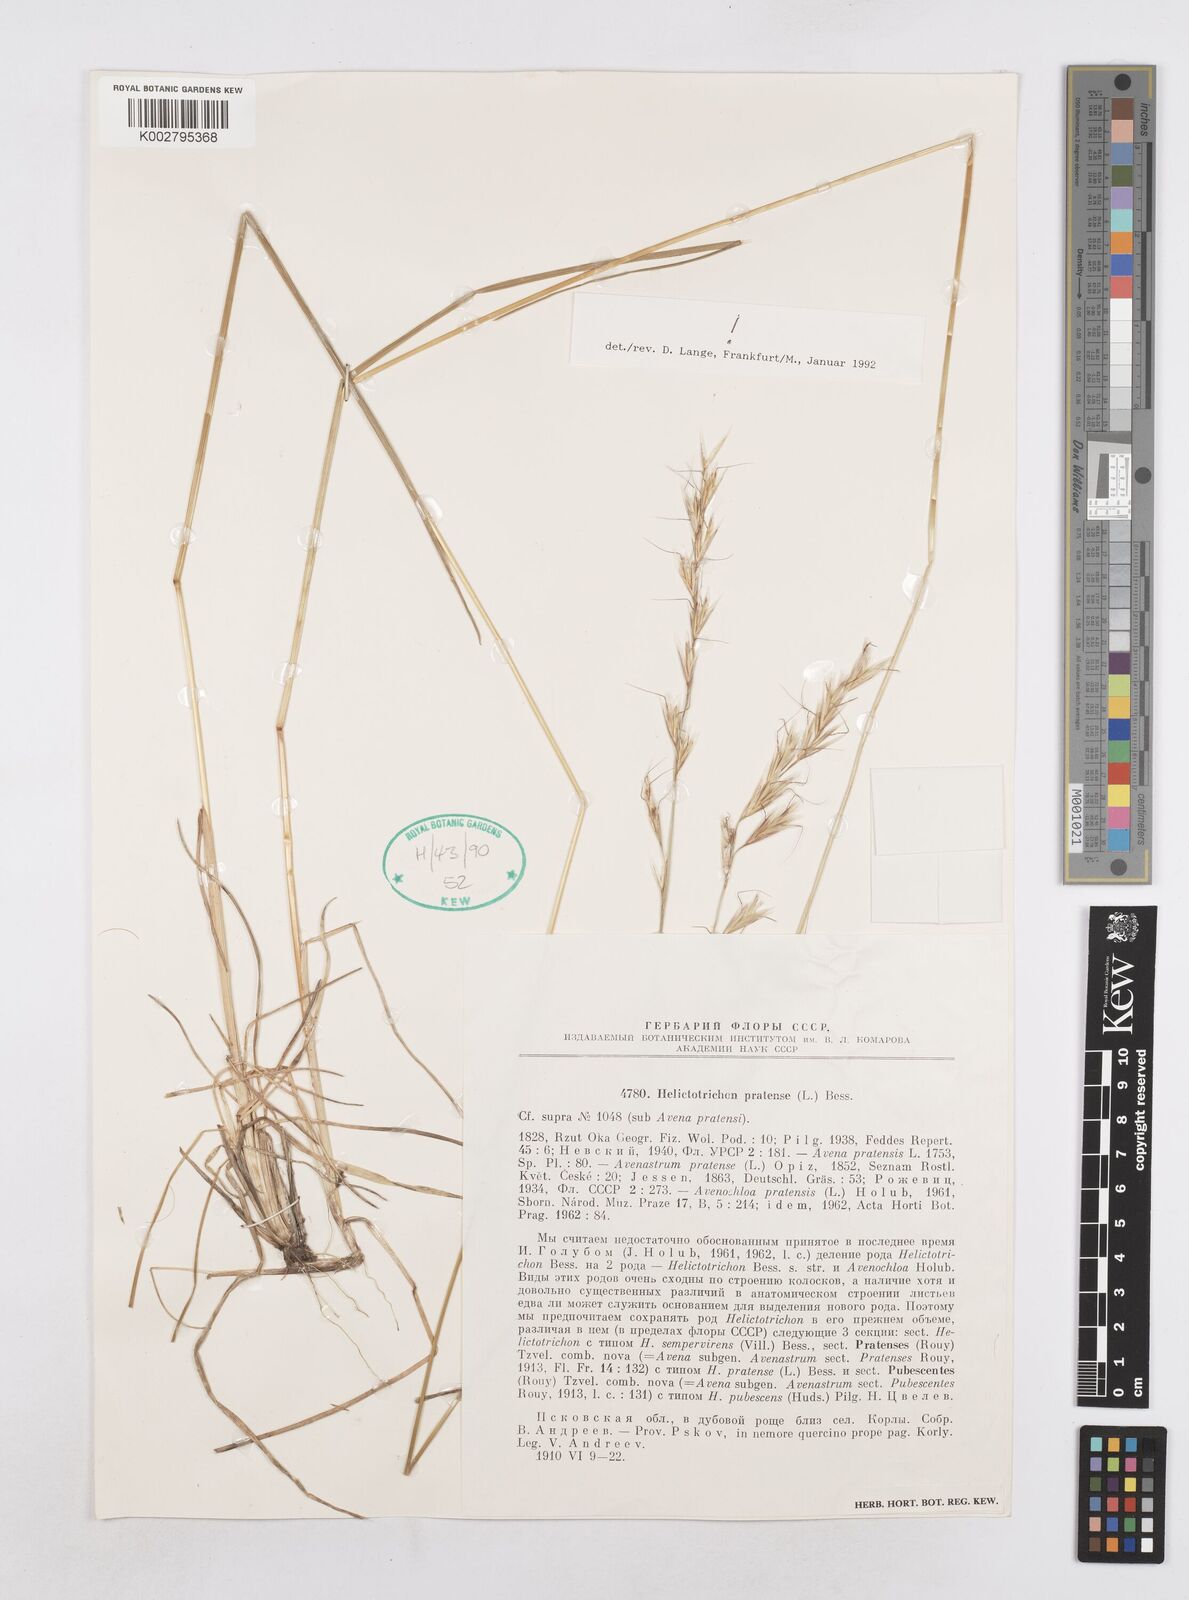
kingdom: Plantae
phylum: Tracheophyta
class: Liliopsida
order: Poales
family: Poaceae
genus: Helictotrichon
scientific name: Helictotrichon
